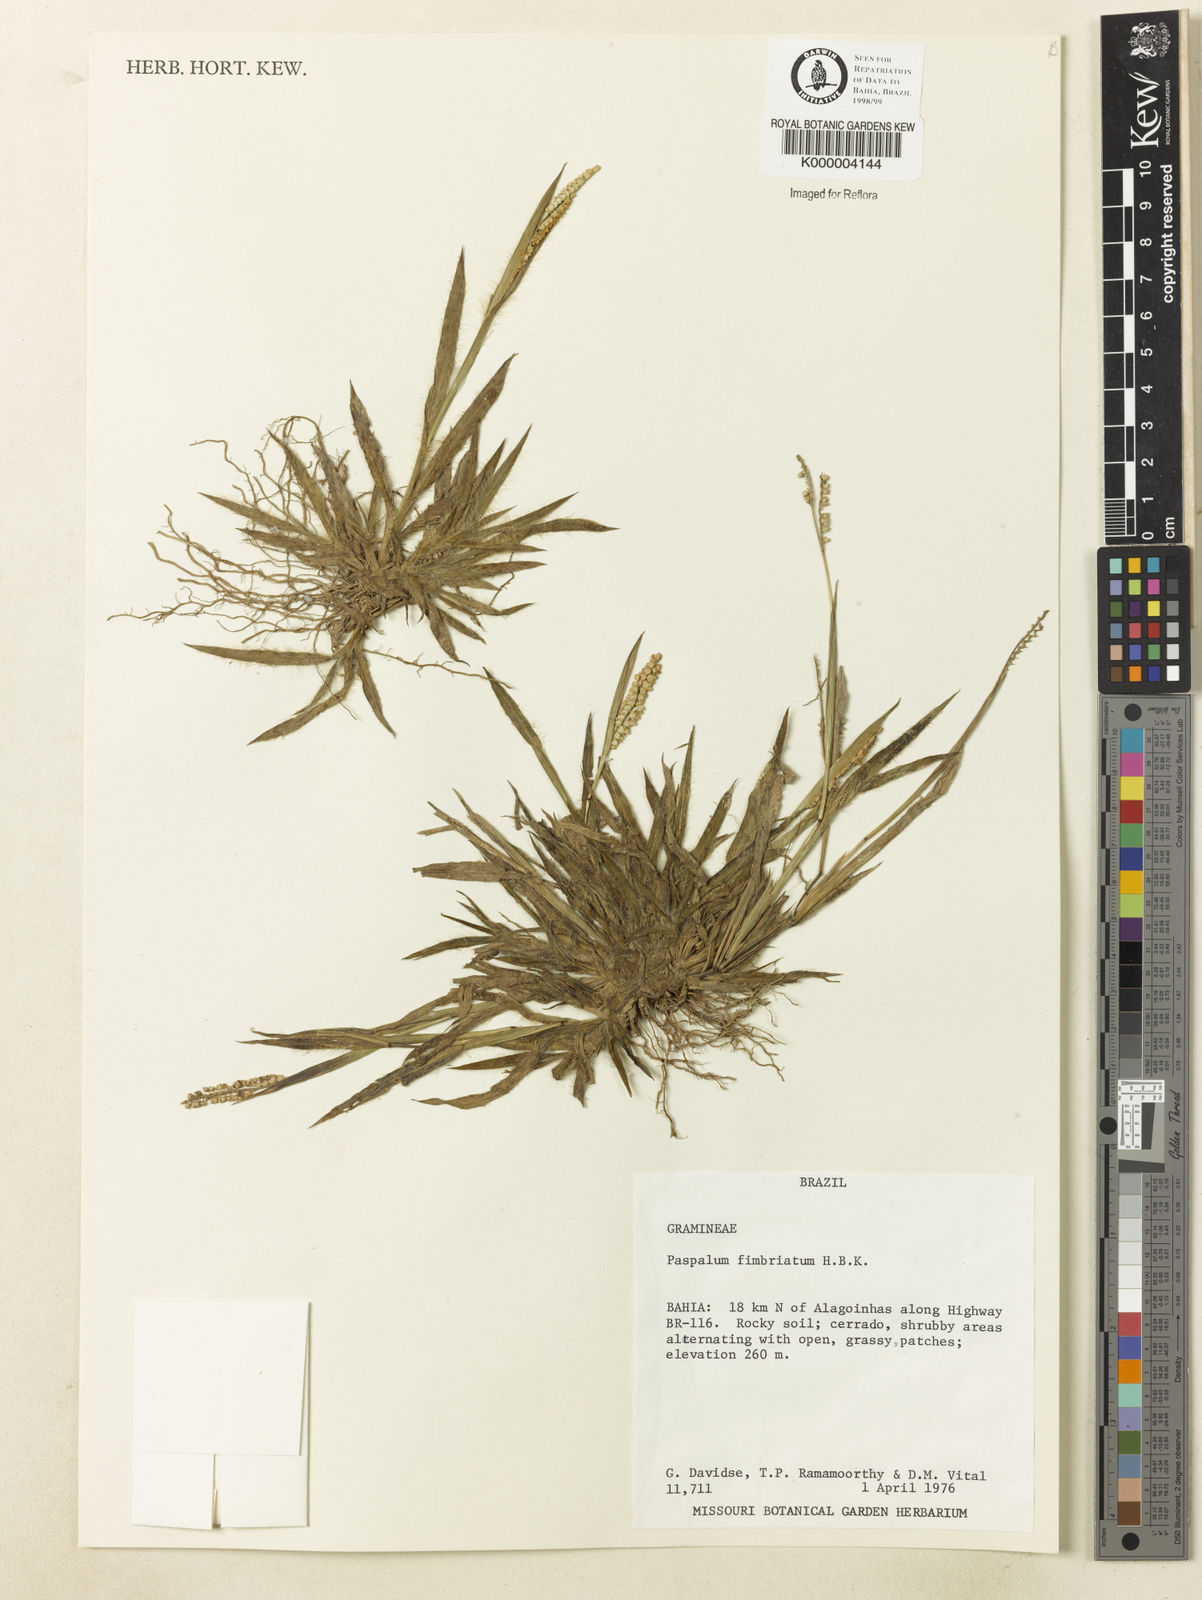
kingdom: Plantae
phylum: Tracheophyta
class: Liliopsida
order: Poales
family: Poaceae
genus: Paspalum
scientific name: Paspalum
